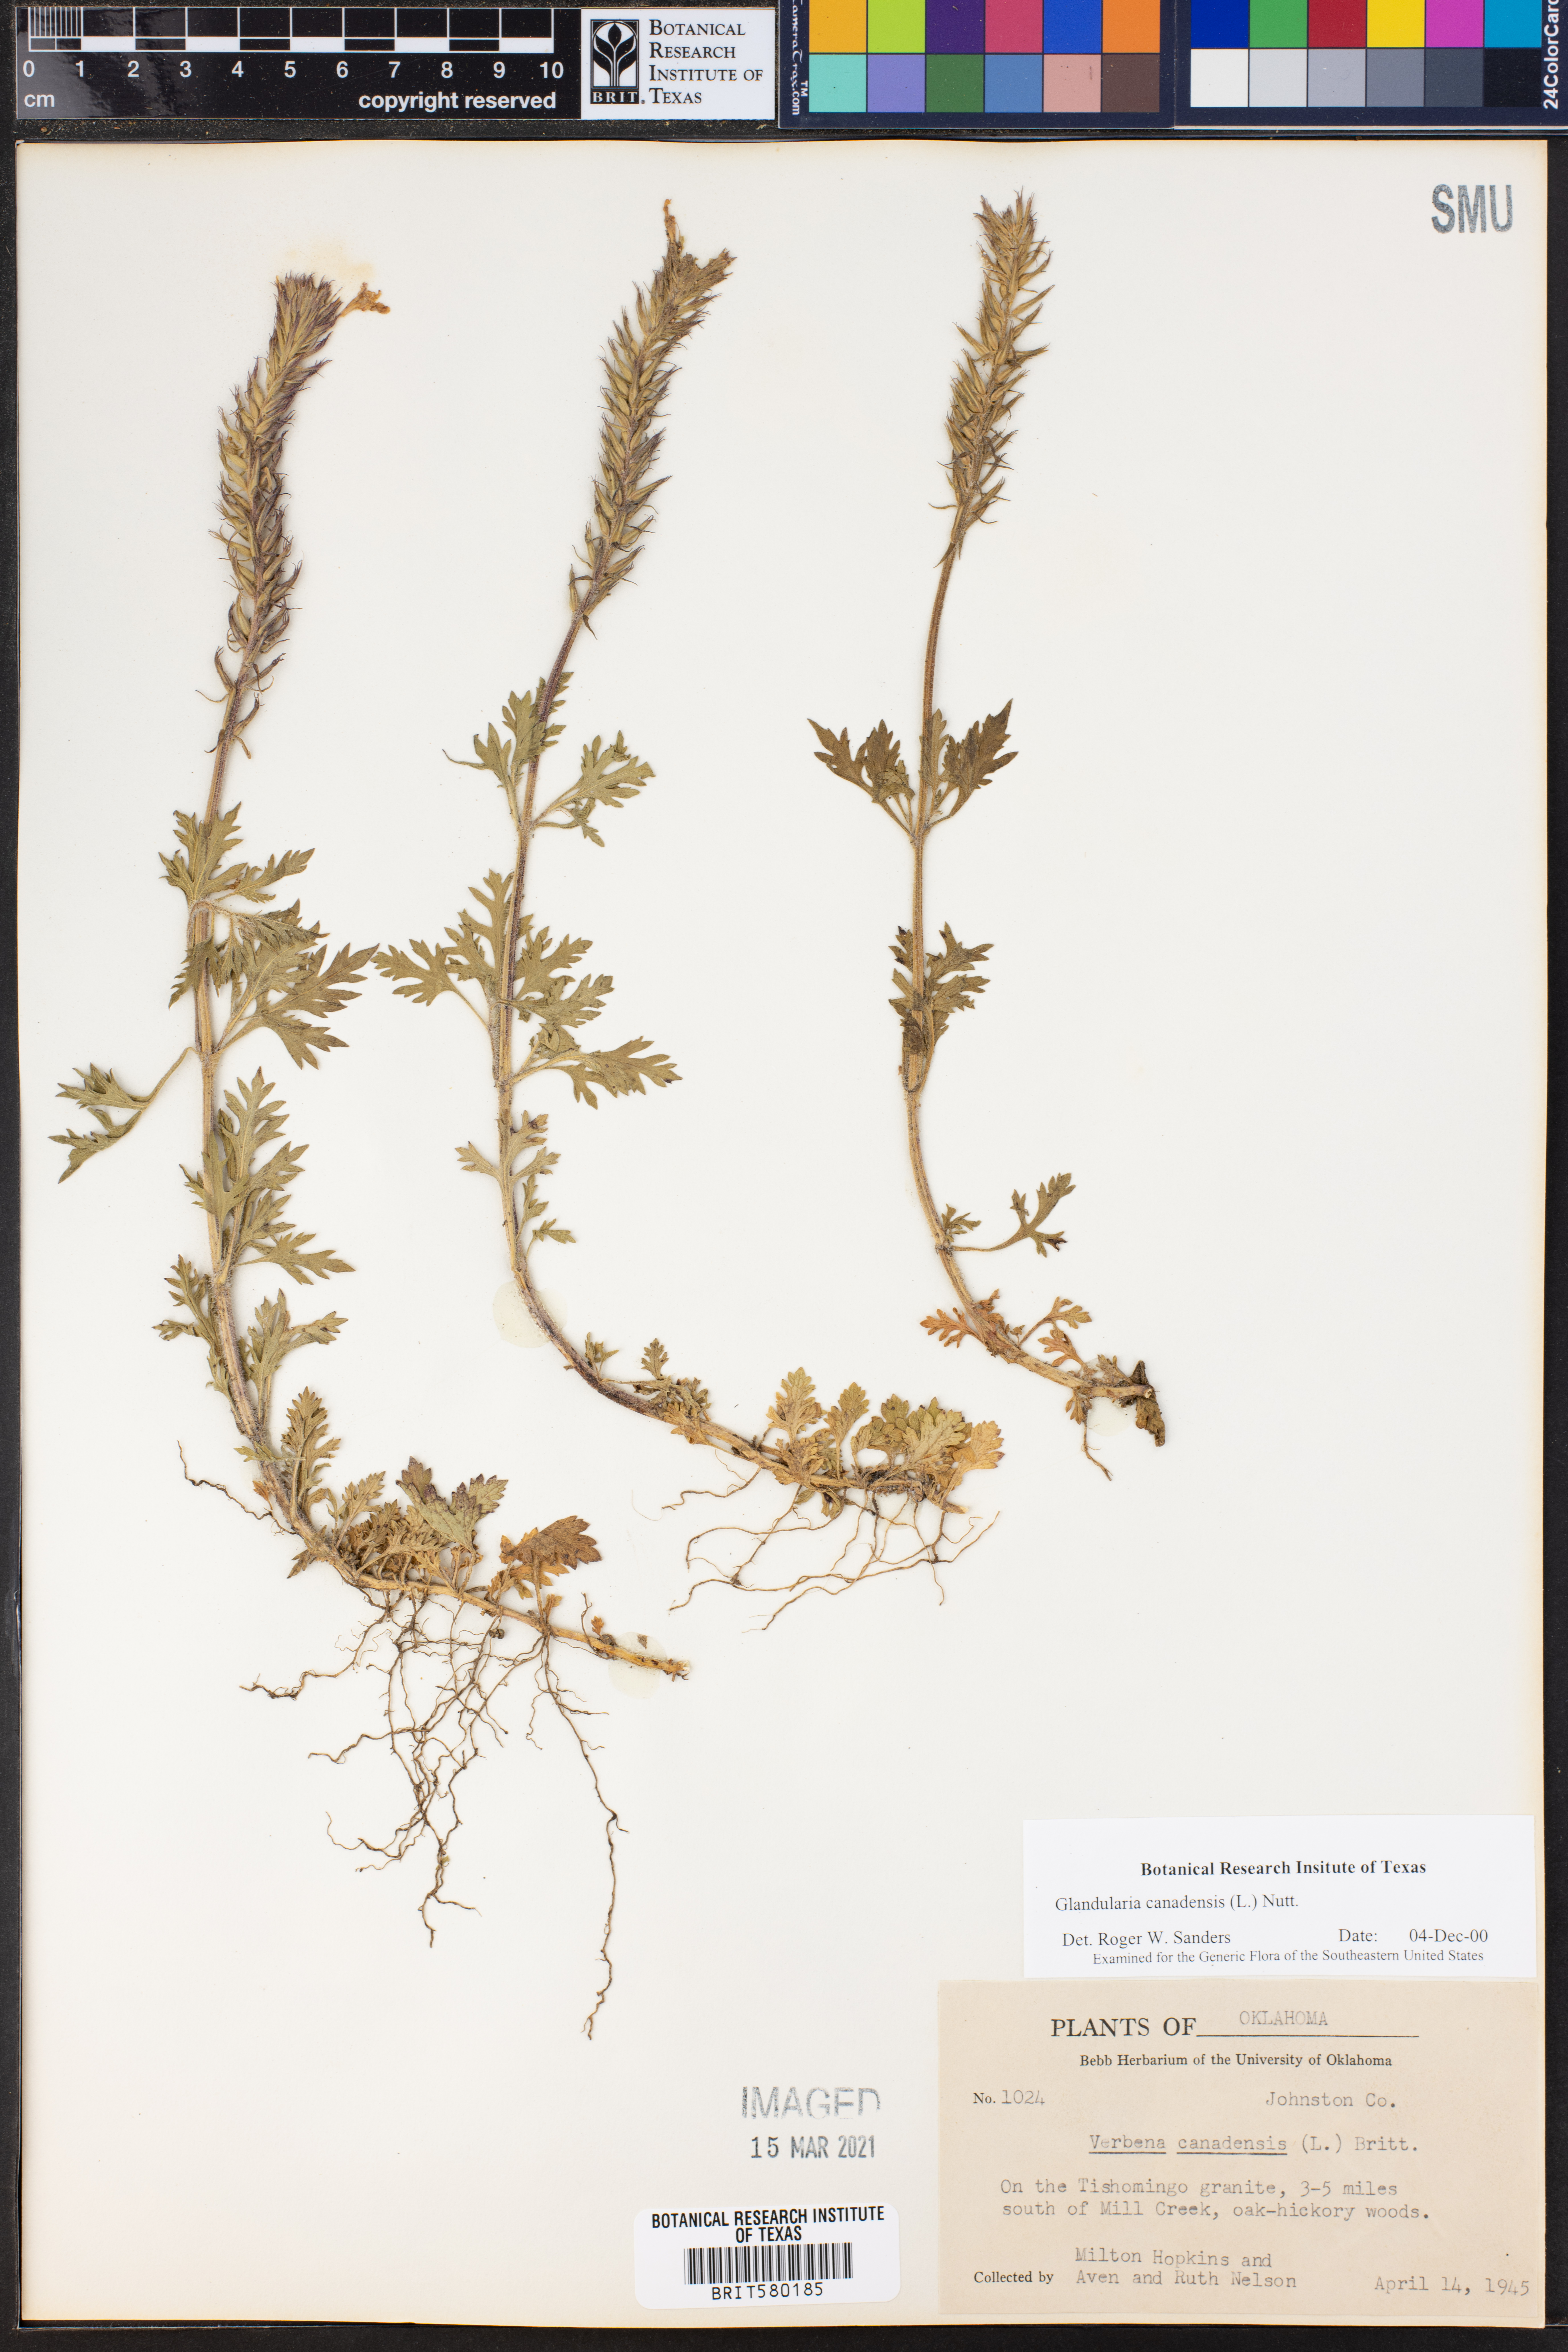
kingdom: Plantae
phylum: Tracheophyta
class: Magnoliopsida
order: Lamiales
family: Verbenaceae
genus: Verbena
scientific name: Verbena canadensis
